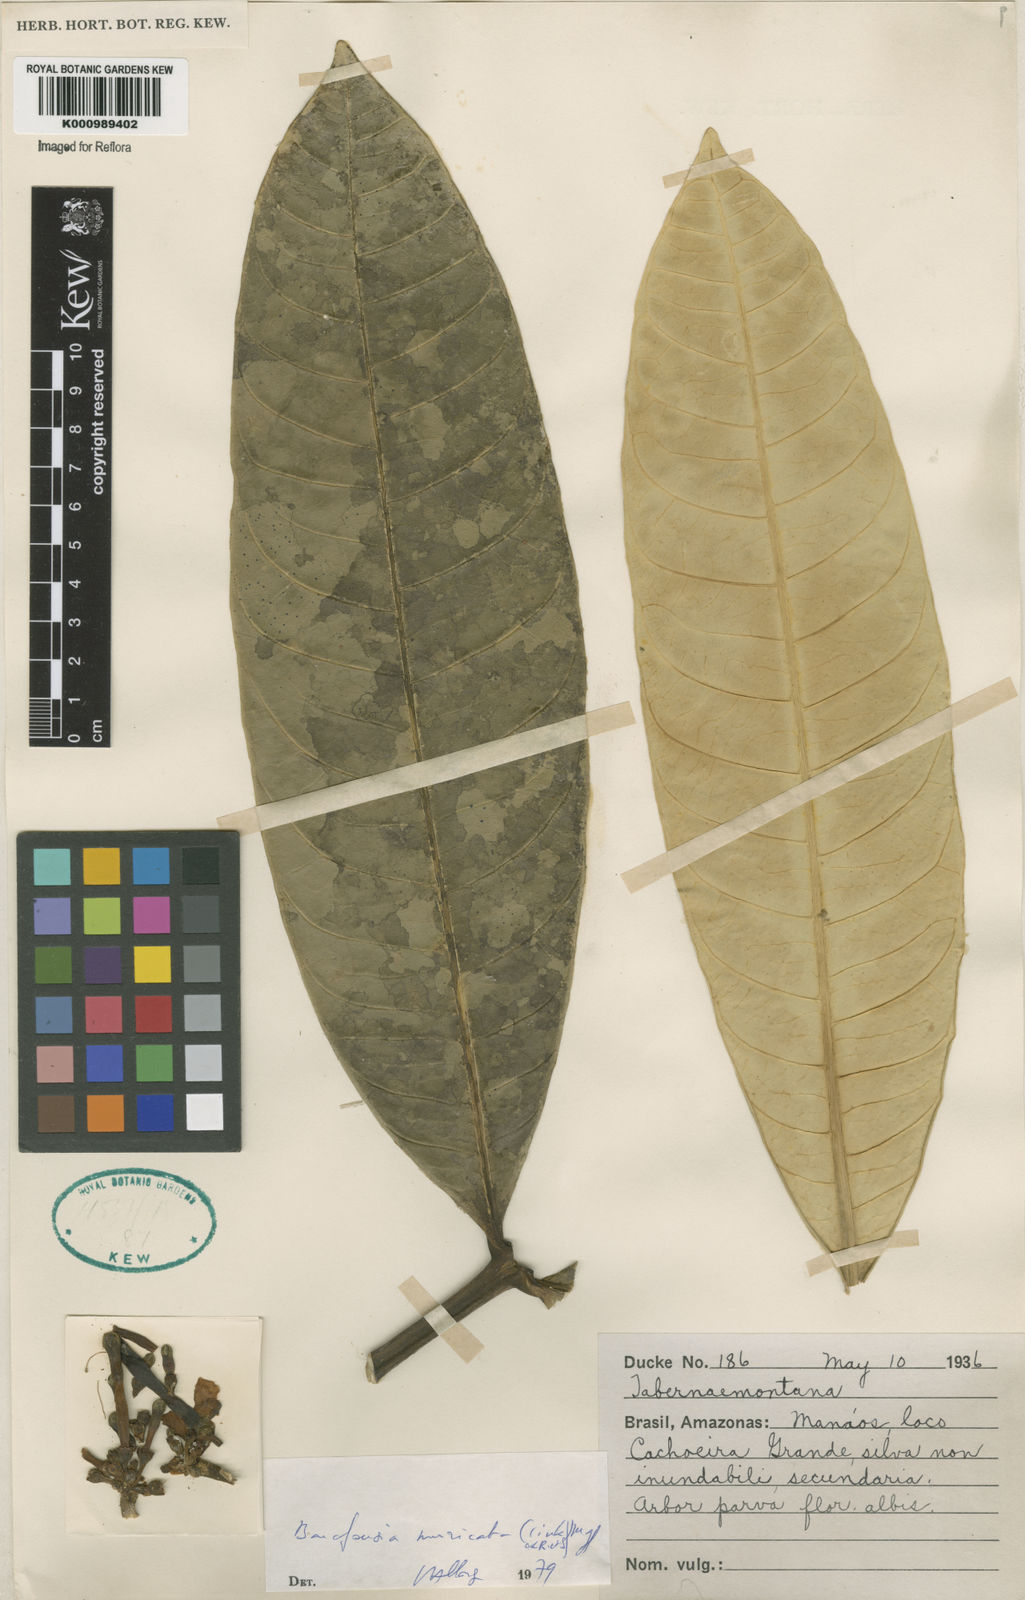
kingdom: Plantae
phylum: Tracheophyta
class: Magnoliopsida
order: Gentianales
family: Apocynaceae
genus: Tabernaemontana
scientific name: Tabernaemontana muricata
